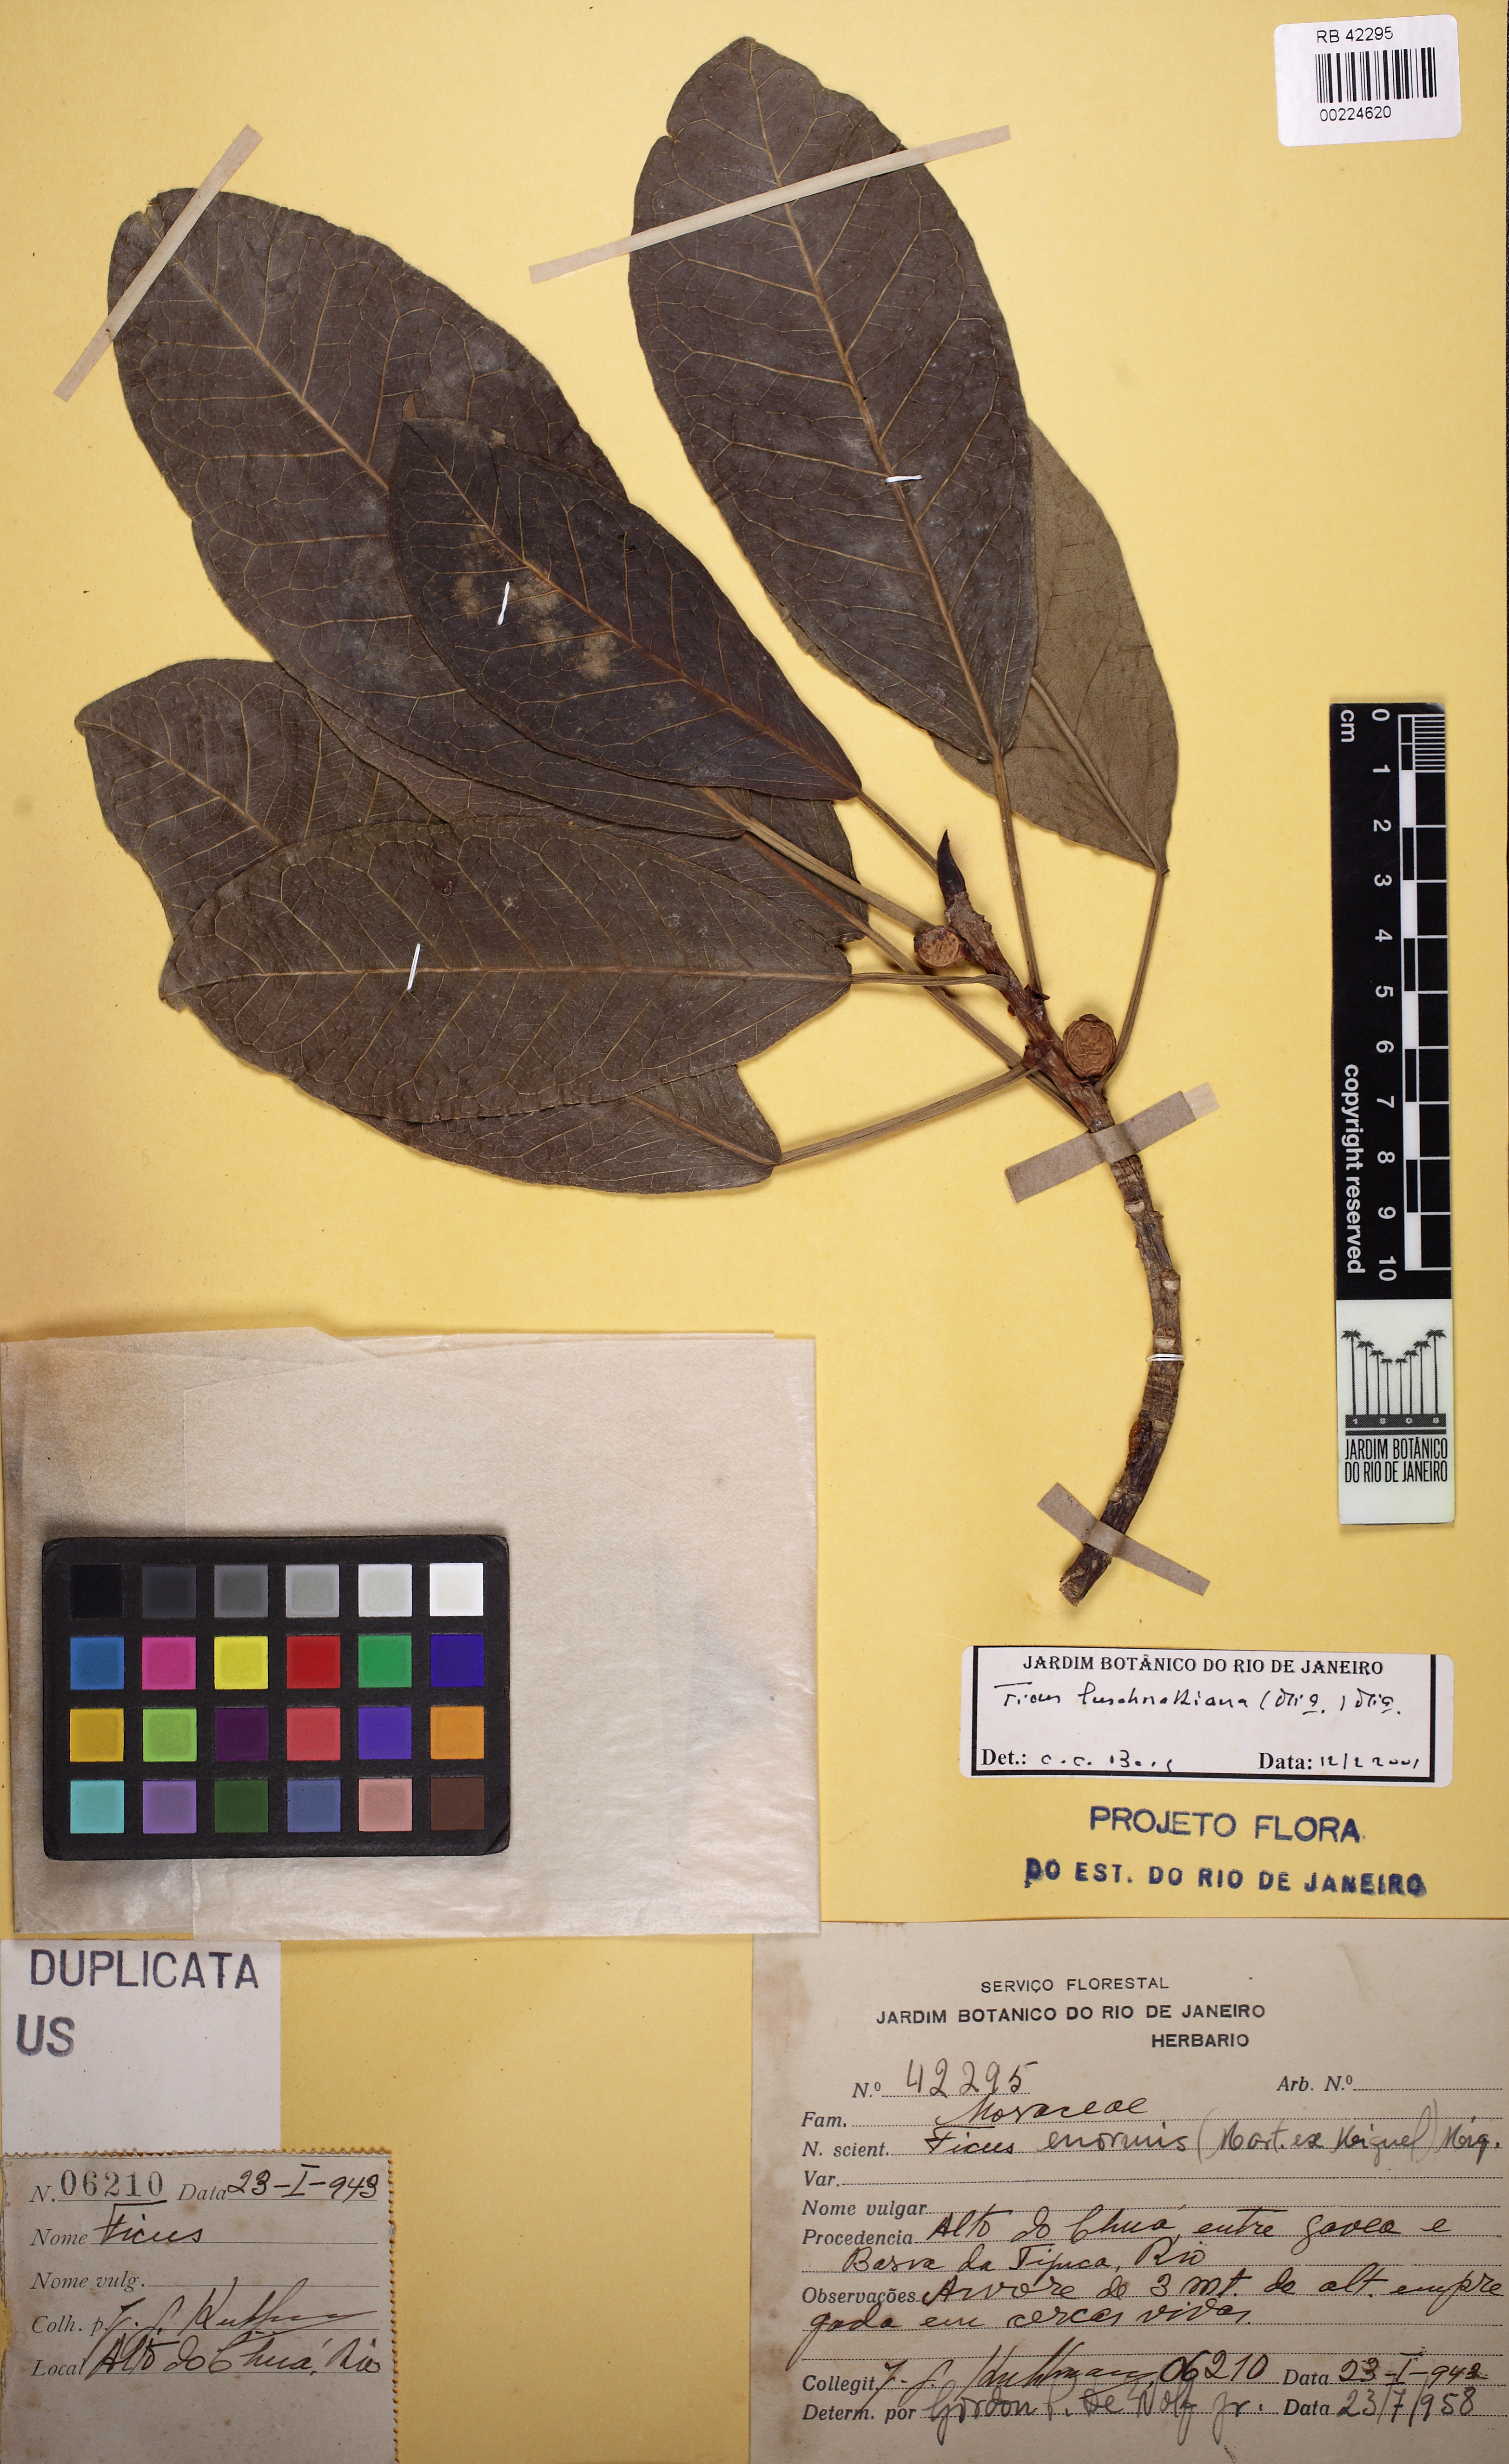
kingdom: Plantae
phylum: Tracheophyta
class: Magnoliopsida
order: Rosales
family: Moraceae
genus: Ficus
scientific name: Ficus luschnathiana
